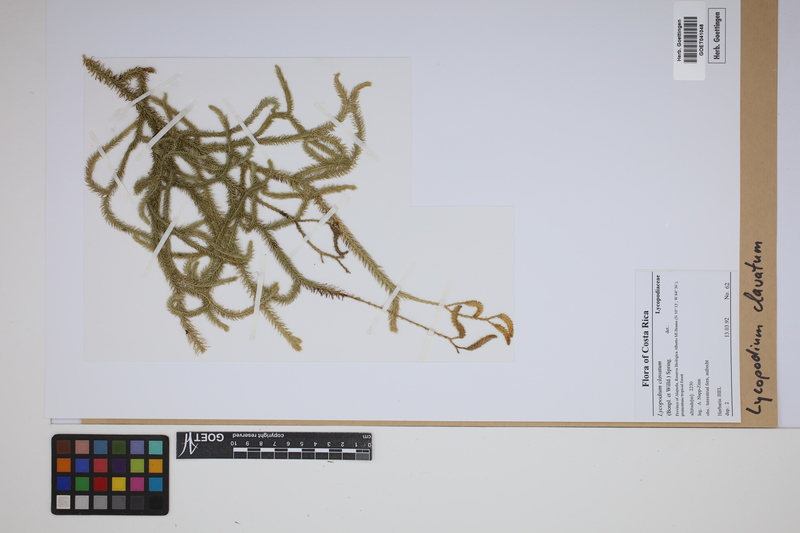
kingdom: Plantae
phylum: Tracheophyta
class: Lycopodiopsida
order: Lycopodiales
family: Lycopodiaceae
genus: Lycopodium
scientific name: Lycopodium clavatum
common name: Stag's-horn clubmoss
